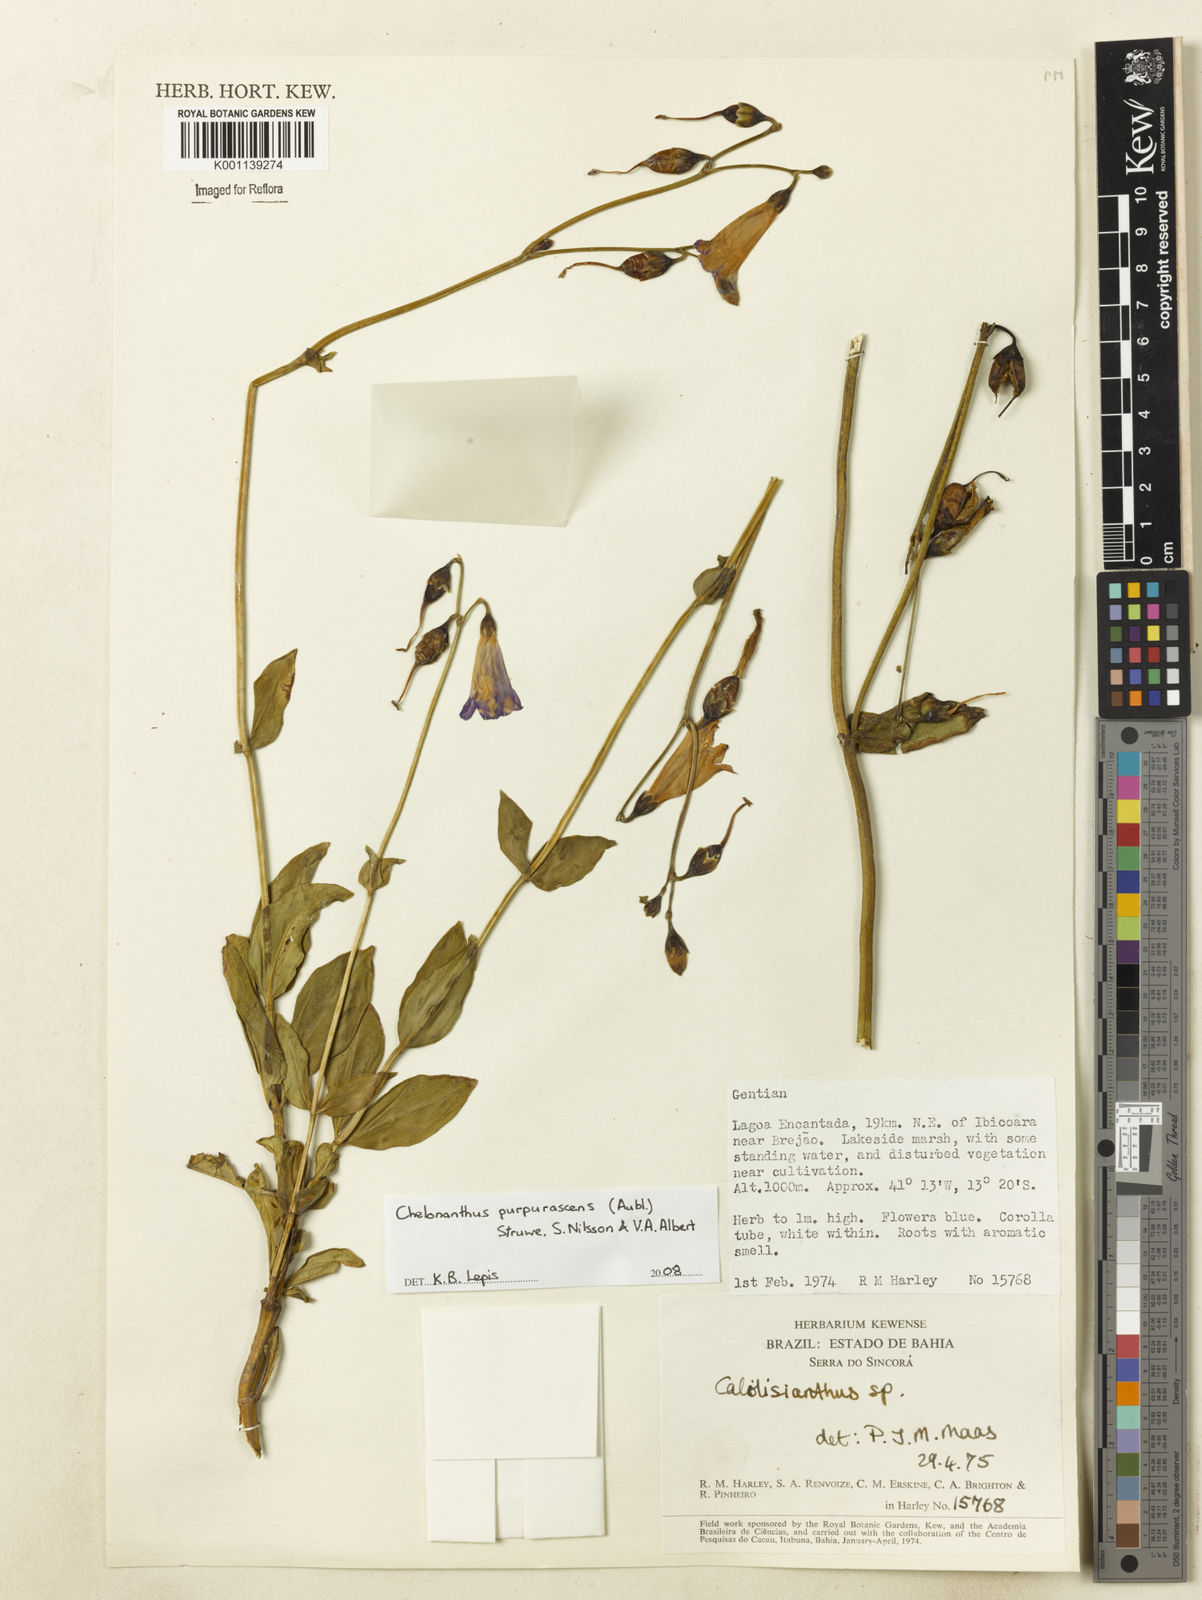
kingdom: Plantae
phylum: Tracheophyta
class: Magnoliopsida
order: Gentianales
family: Gentianaceae
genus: Chelonanthus
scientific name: Chelonanthus purpurascens
